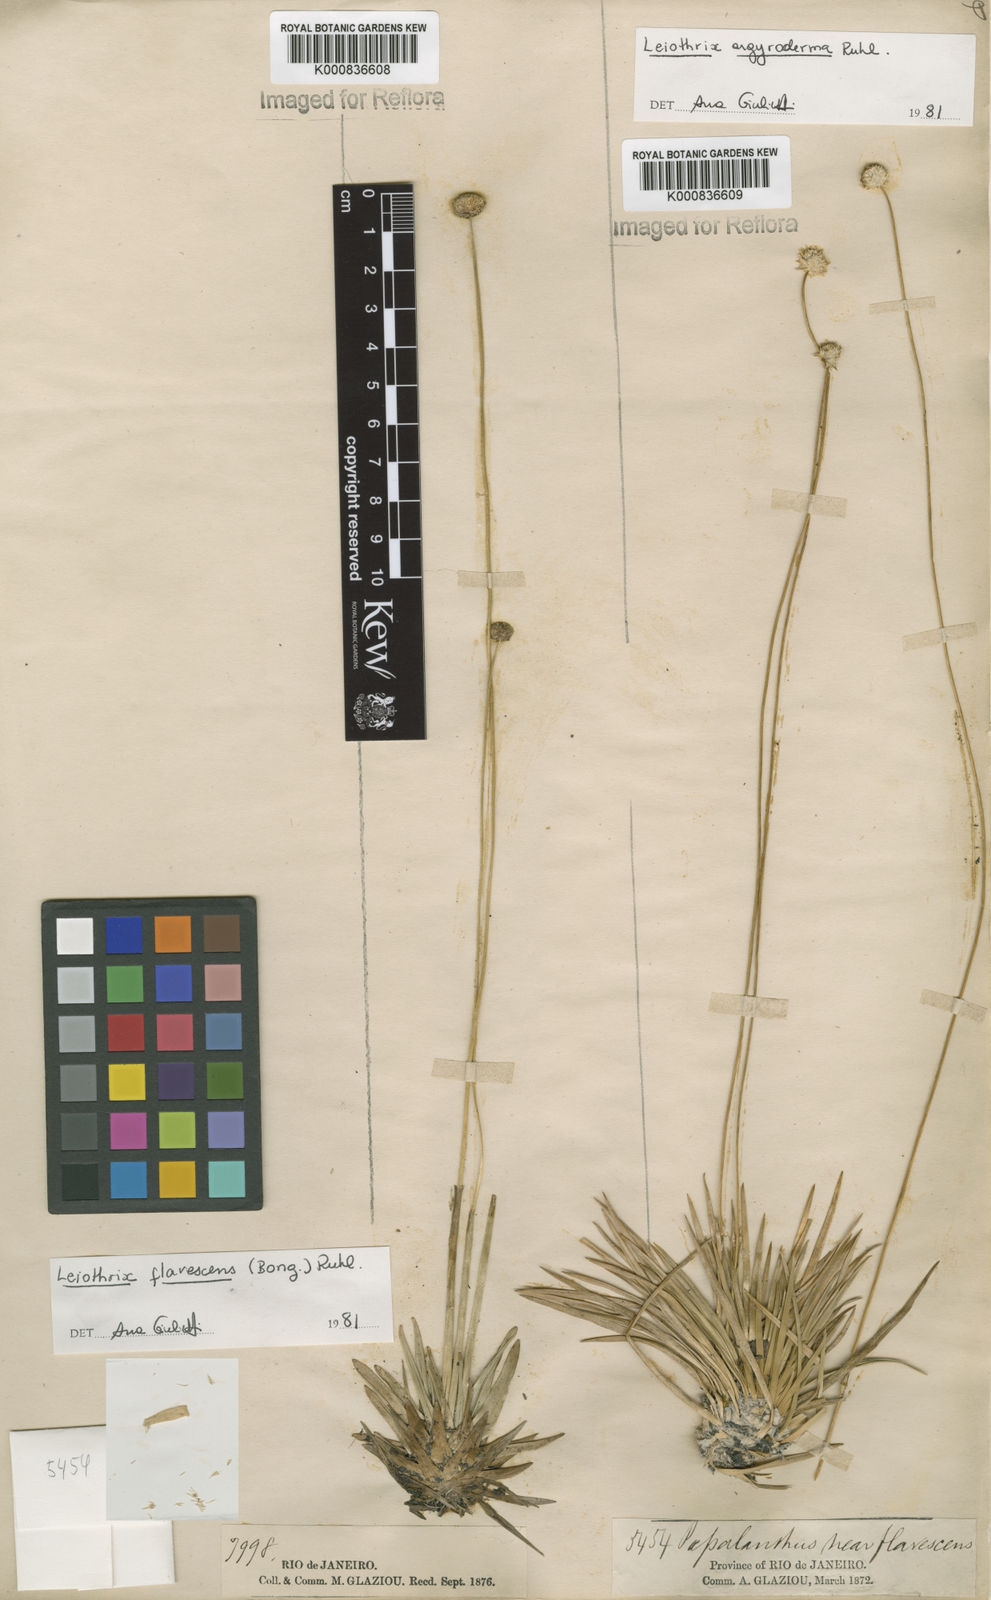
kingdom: Plantae
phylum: Tracheophyta
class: Liliopsida
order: Poales
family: Eriocaulaceae
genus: Leiothrix
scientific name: Leiothrix argyroderma
